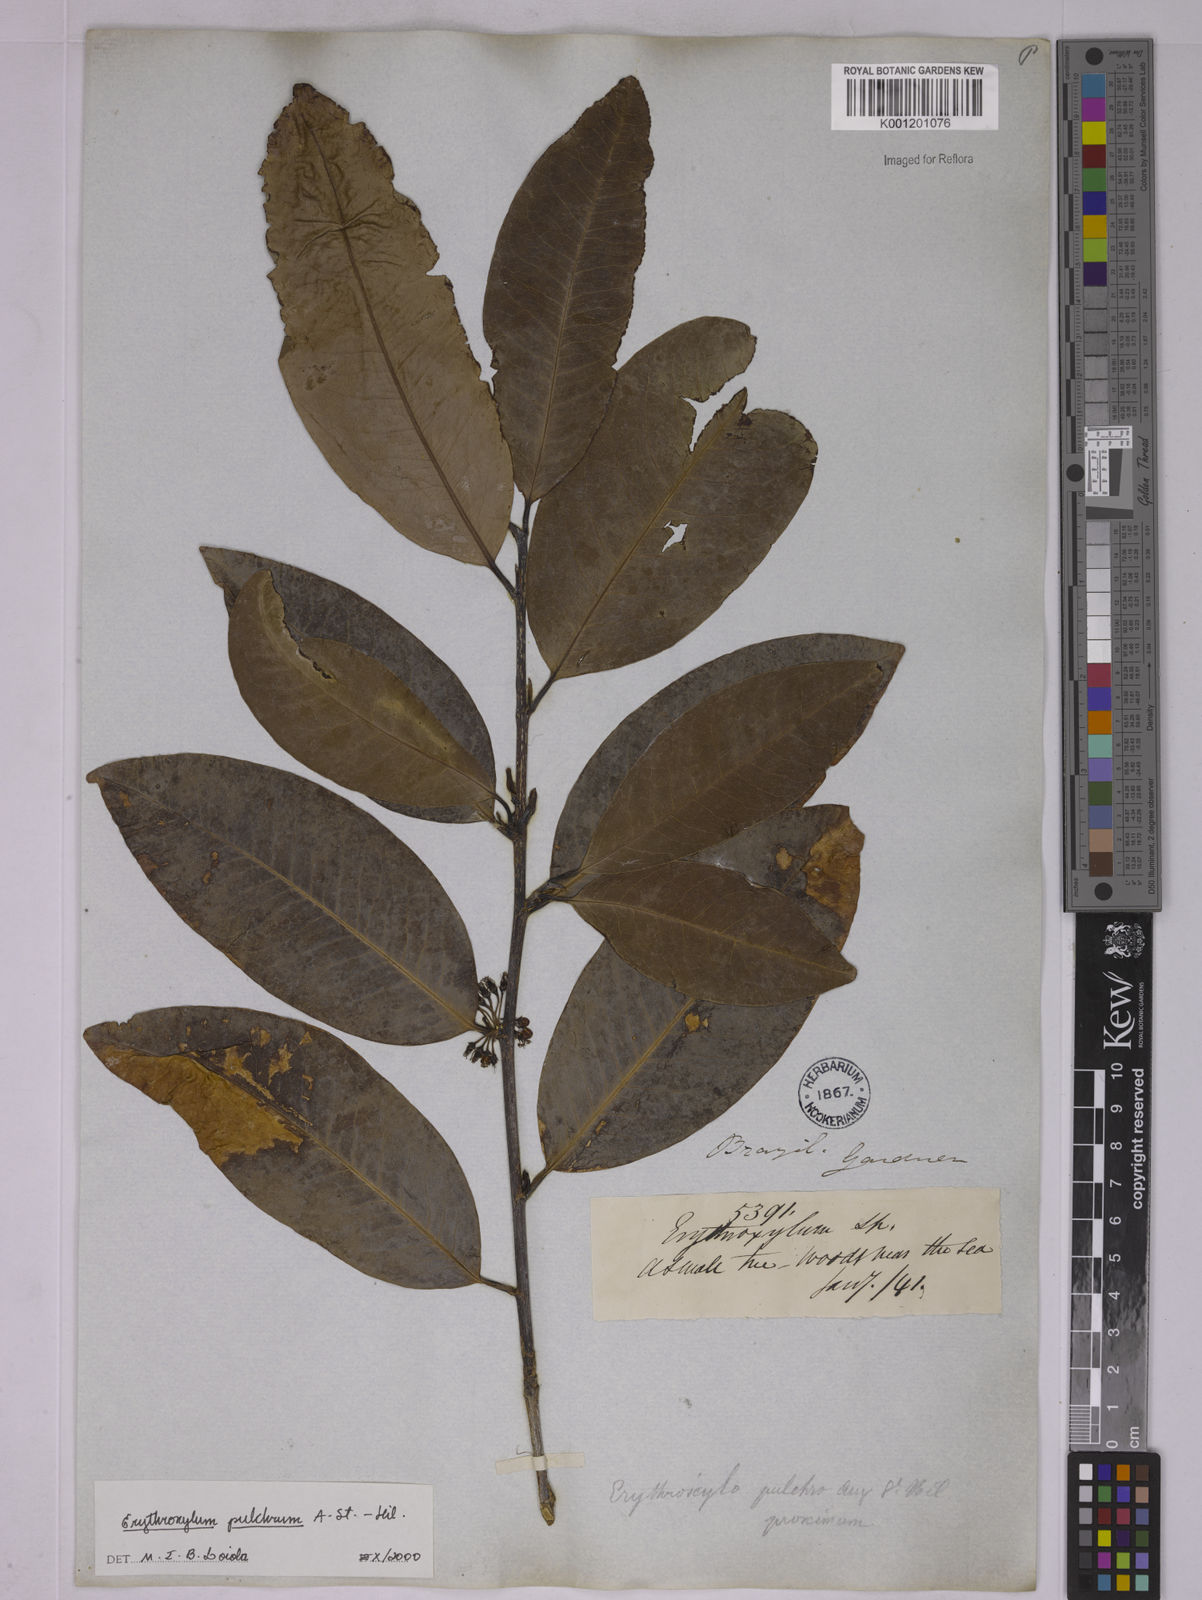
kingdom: Plantae
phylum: Tracheophyta
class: Magnoliopsida
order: Malpighiales
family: Erythroxylaceae
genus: Erythroxylum
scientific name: Erythroxylum pulchrum
